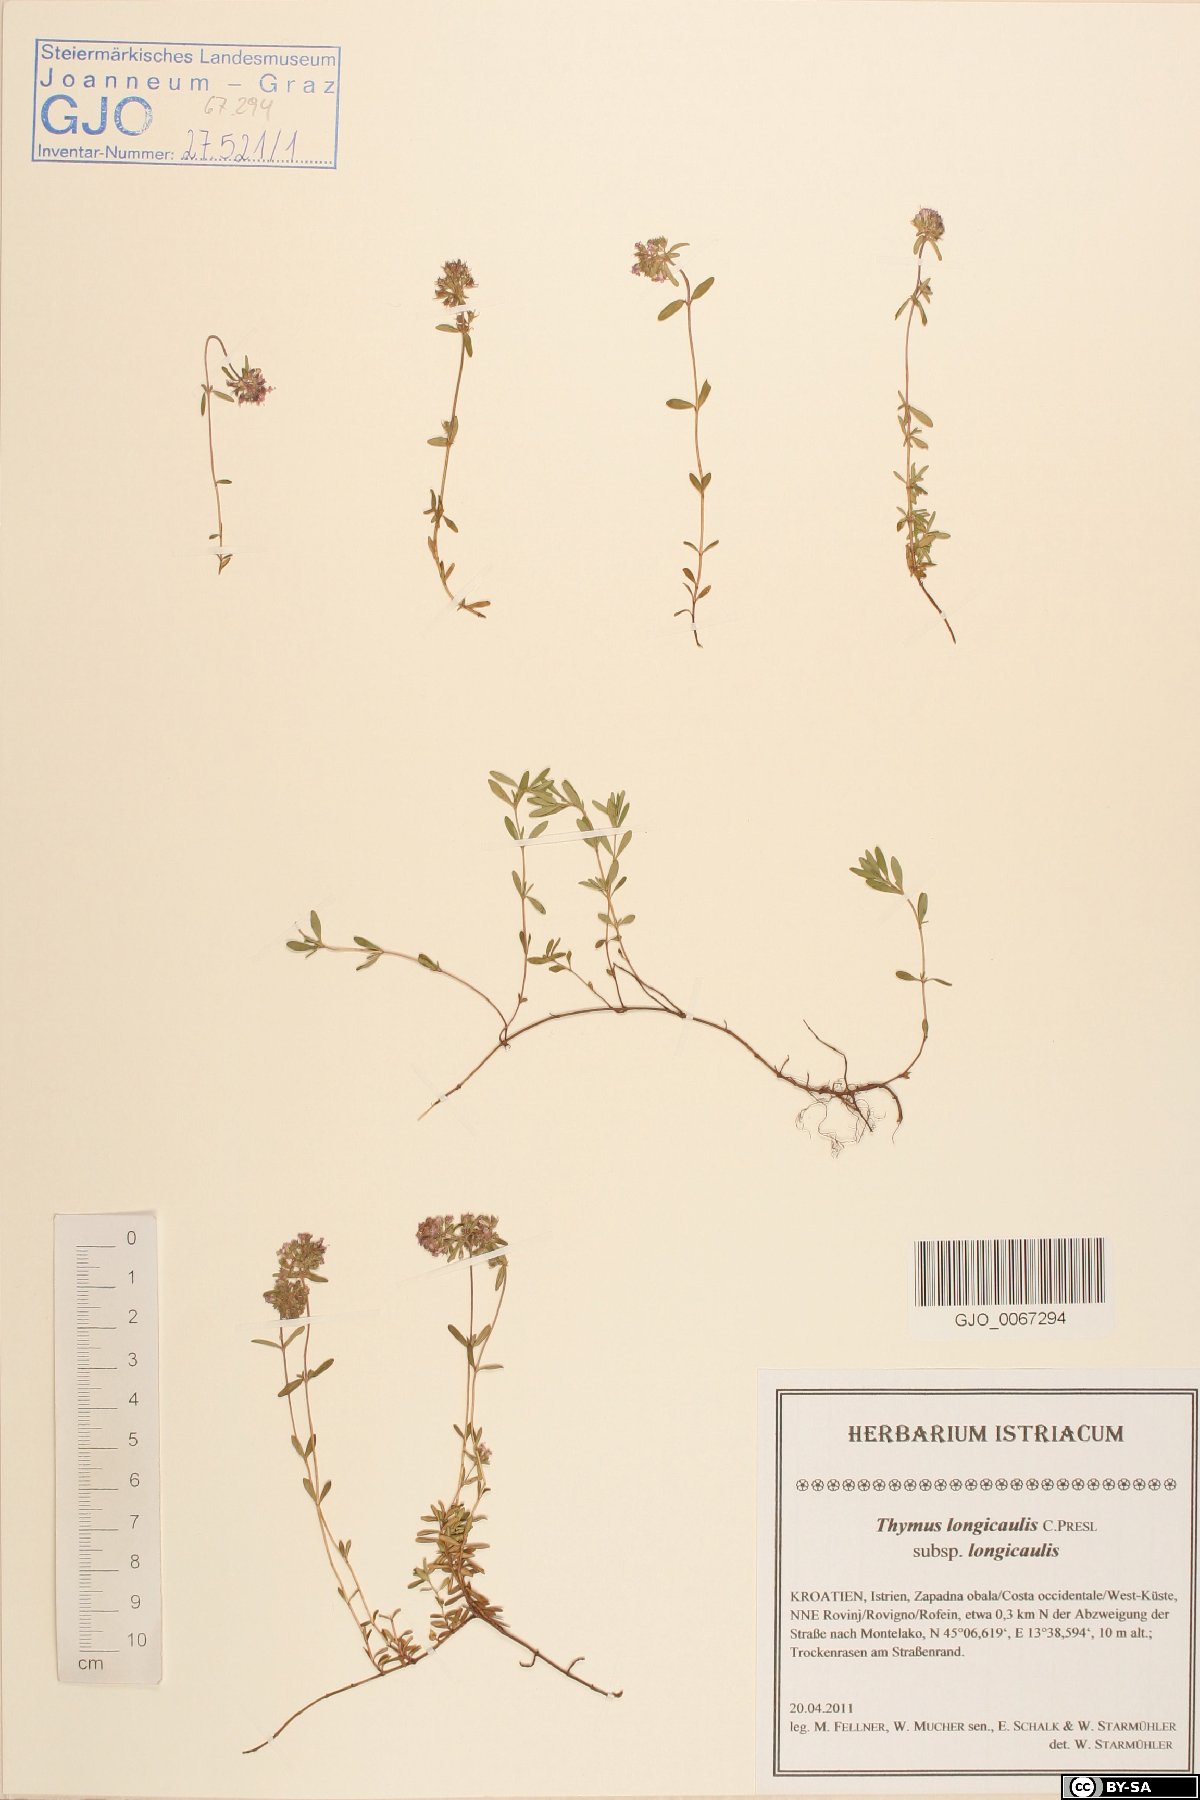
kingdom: Plantae
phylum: Tracheophyta
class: Magnoliopsida
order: Lamiales
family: Lamiaceae
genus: Thymus
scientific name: Thymus longicaulis
